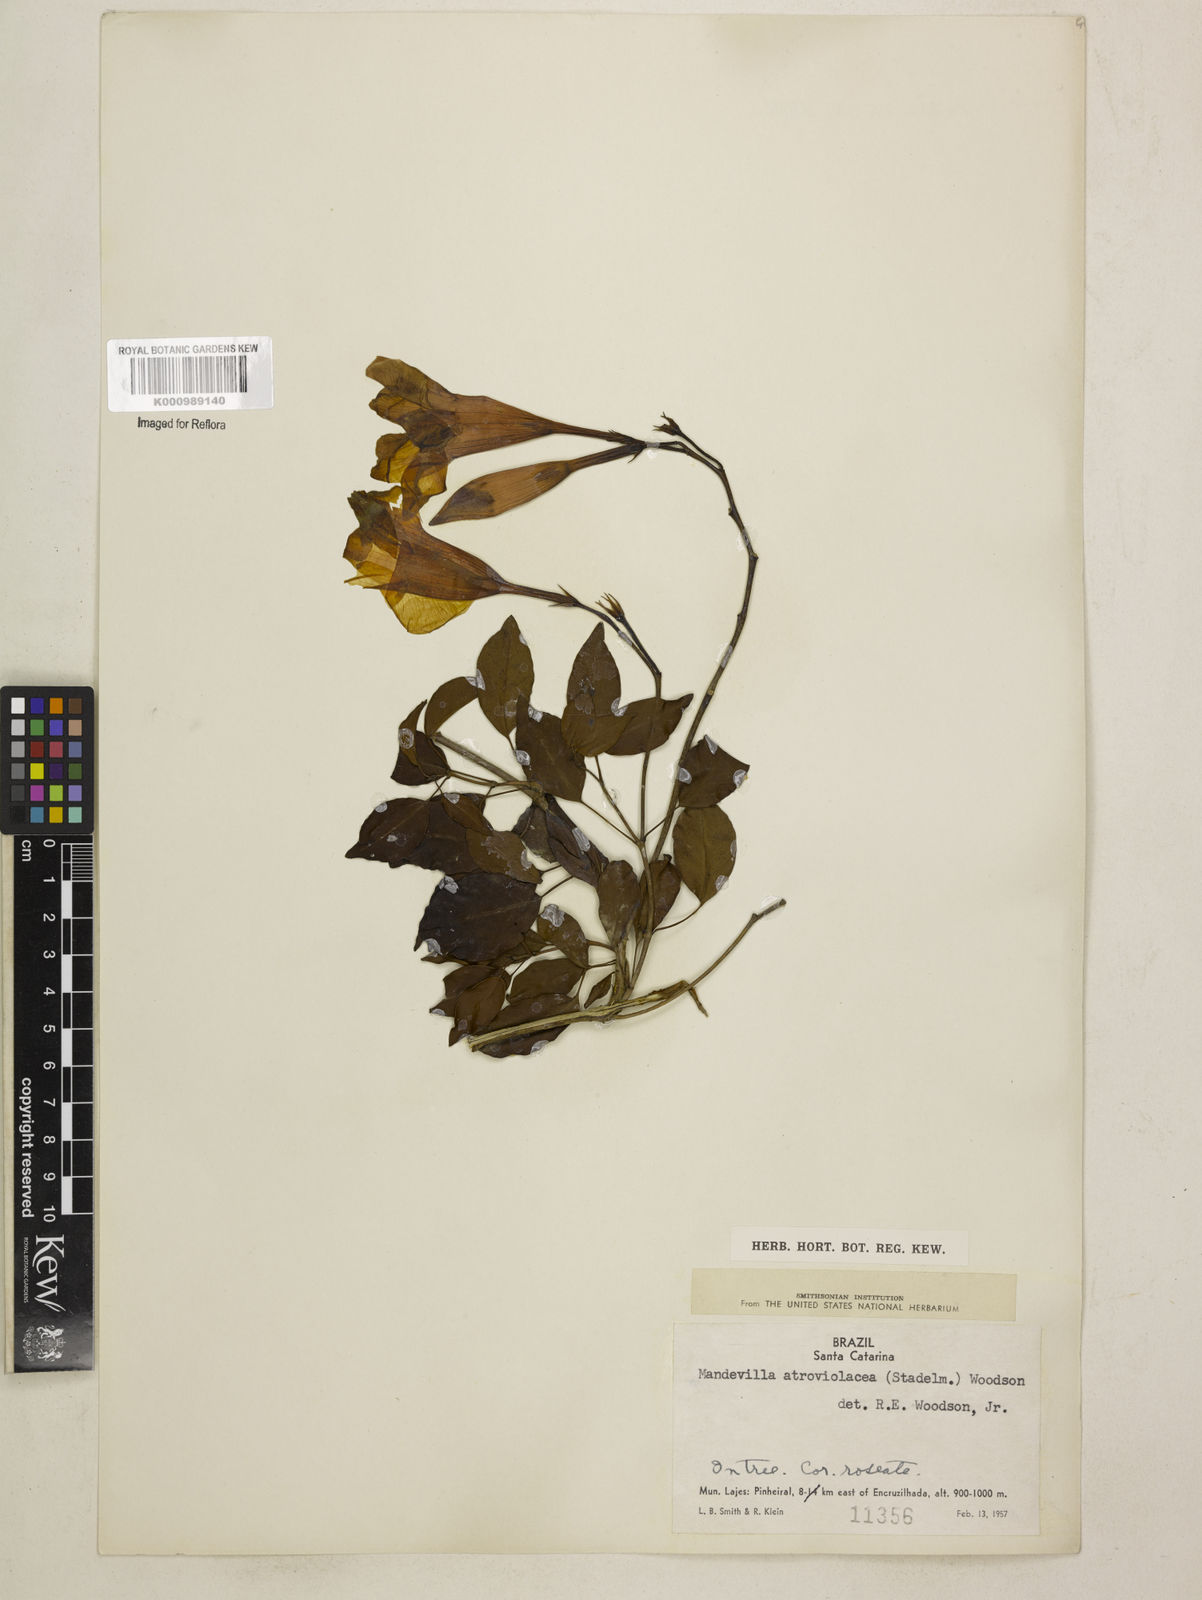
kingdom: Plantae
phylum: Tracheophyta
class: Magnoliopsida
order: Gentianales
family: Apocynaceae
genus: Mandevilla
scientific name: Mandevilla atroviolacea
